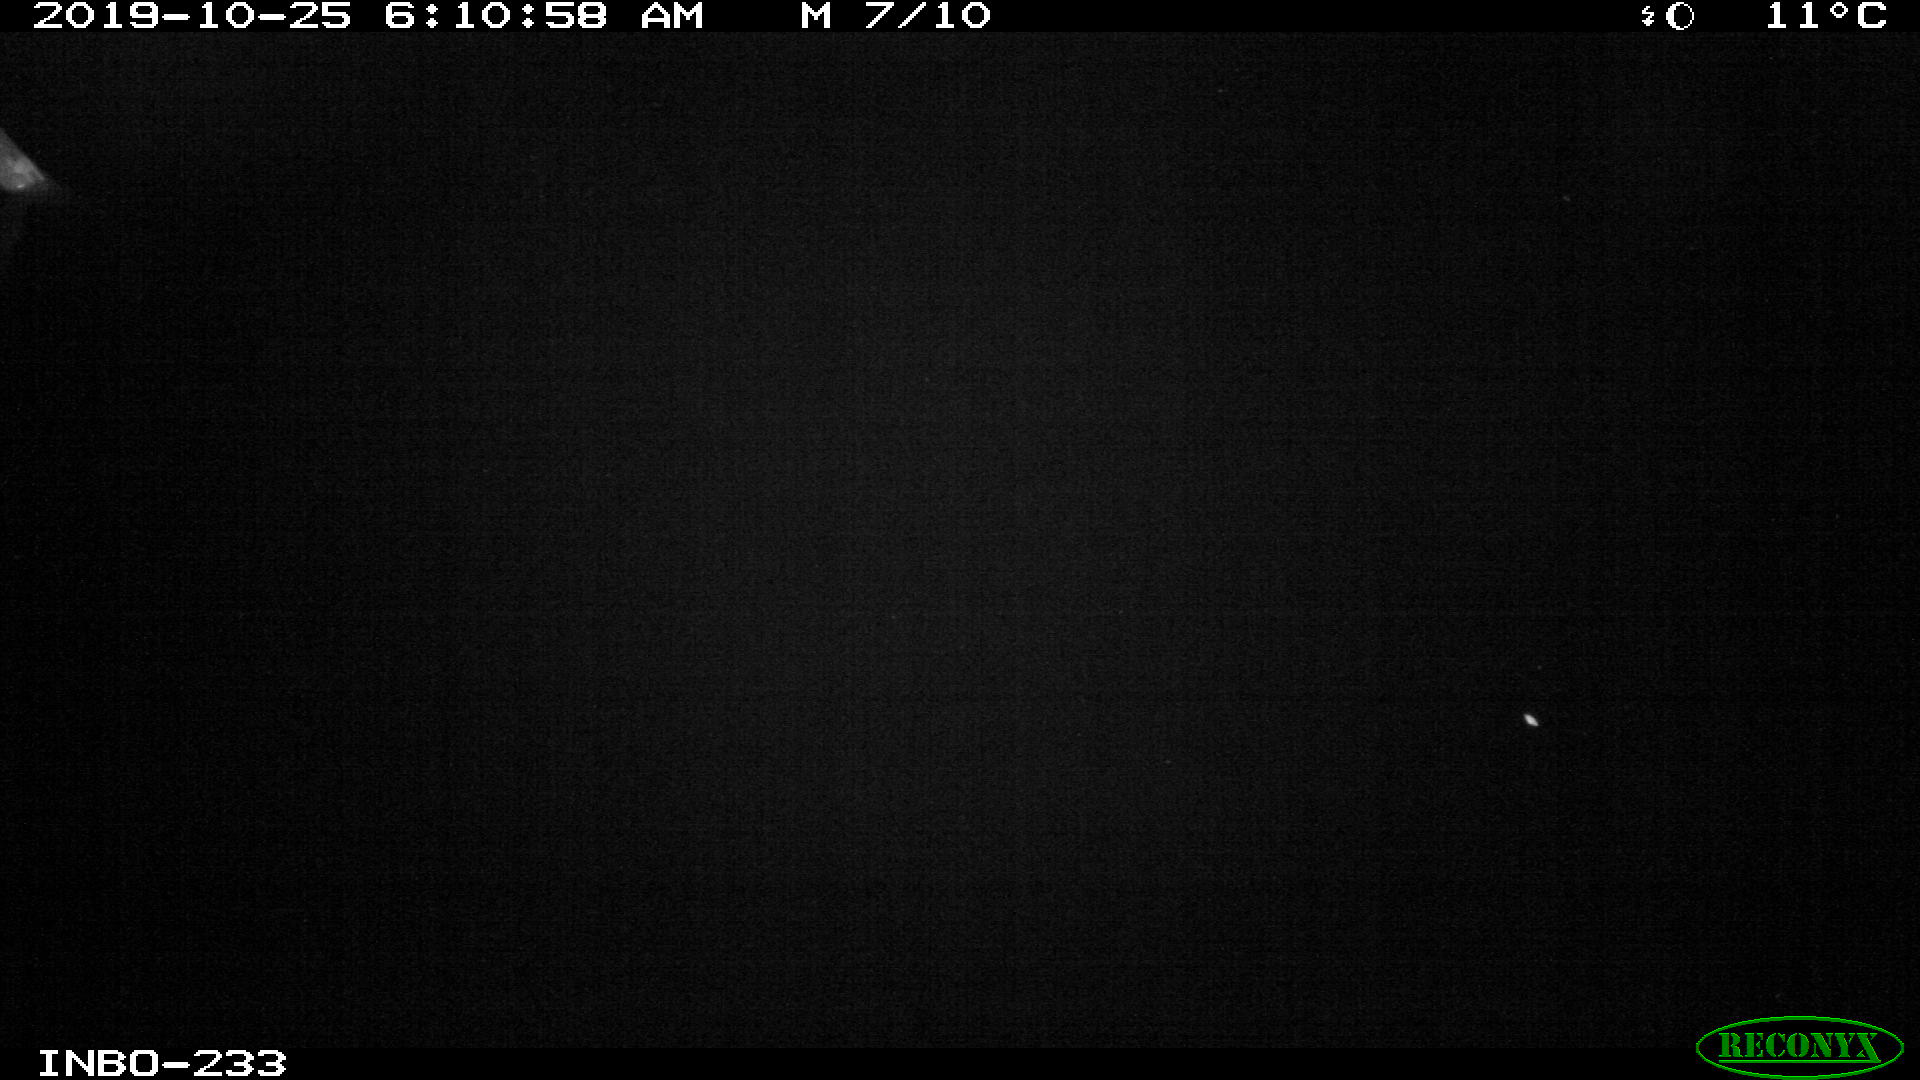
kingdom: Animalia
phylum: Chordata
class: Aves
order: Anseriformes
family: Anatidae
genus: Anas
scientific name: Anas platyrhynchos
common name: Mallard
